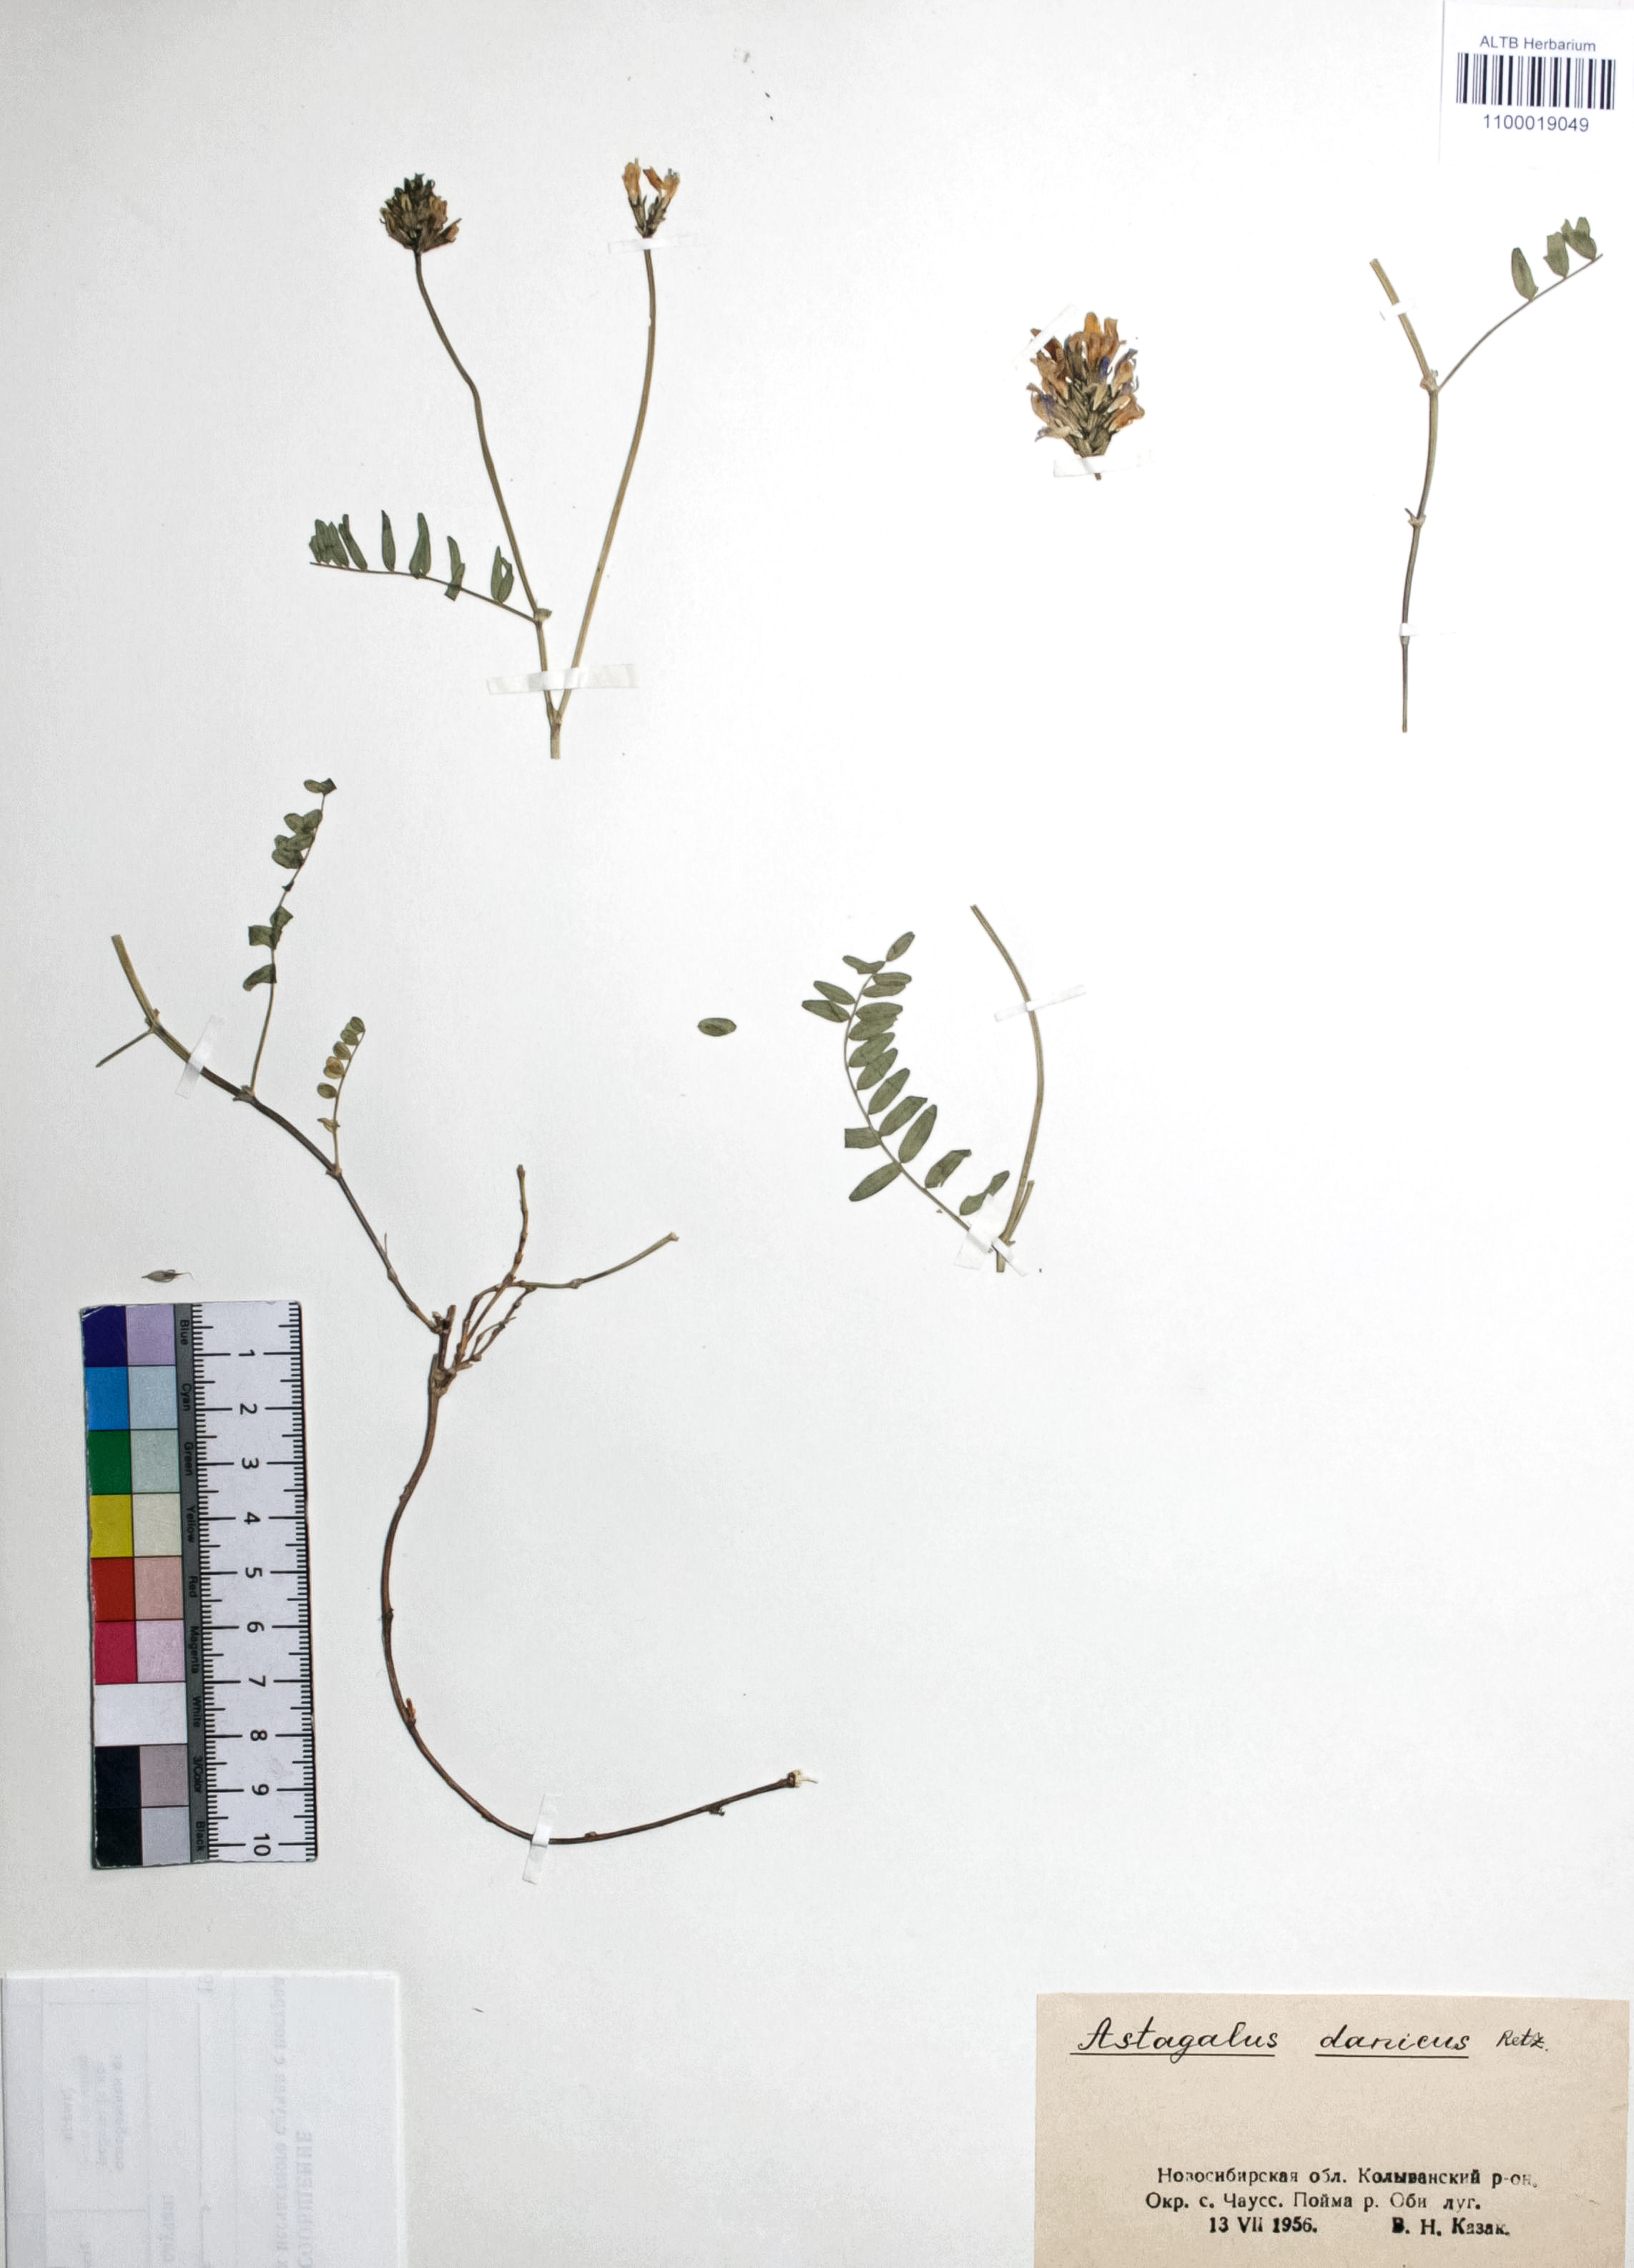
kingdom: Plantae
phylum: Tracheophyta
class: Magnoliopsida
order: Fabales
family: Fabaceae
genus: Astragalus
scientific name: Astragalus danicus
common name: Purple milk-vetch
